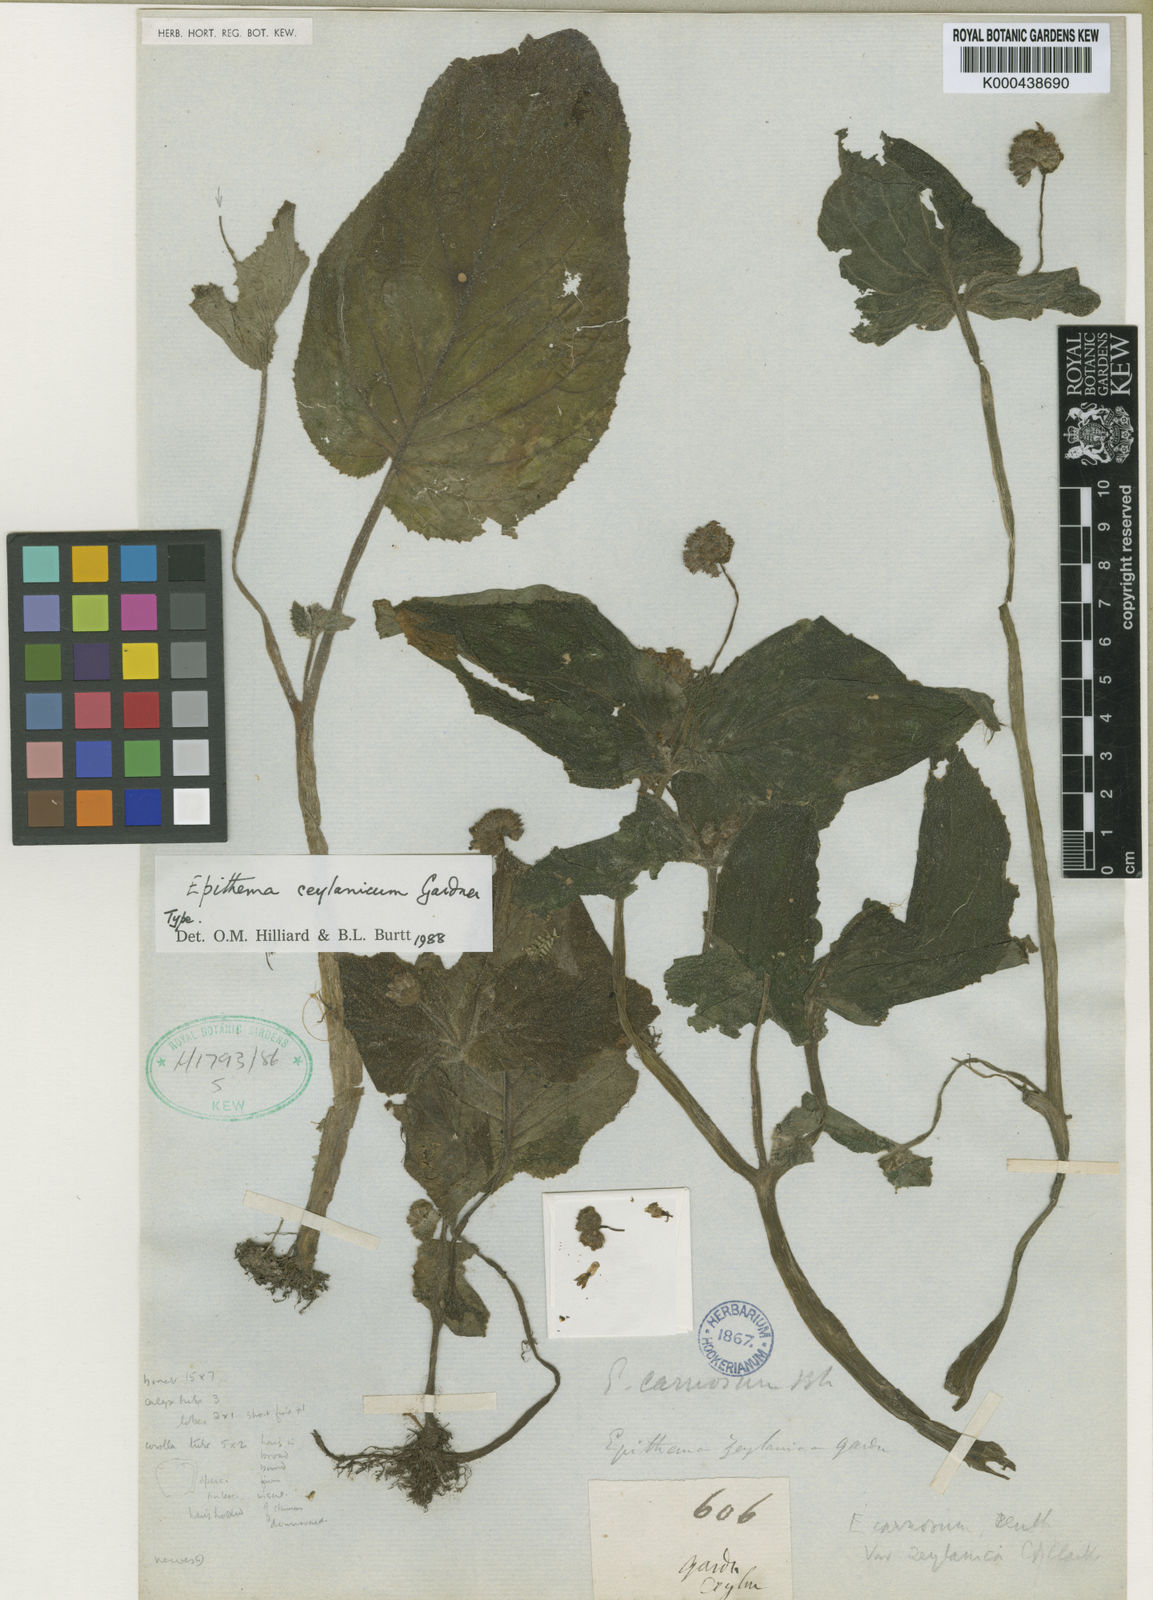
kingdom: Plantae
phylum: Tracheophyta
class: Magnoliopsida
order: Lamiales
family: Gesneriaceae
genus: Epithema
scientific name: Epithema
